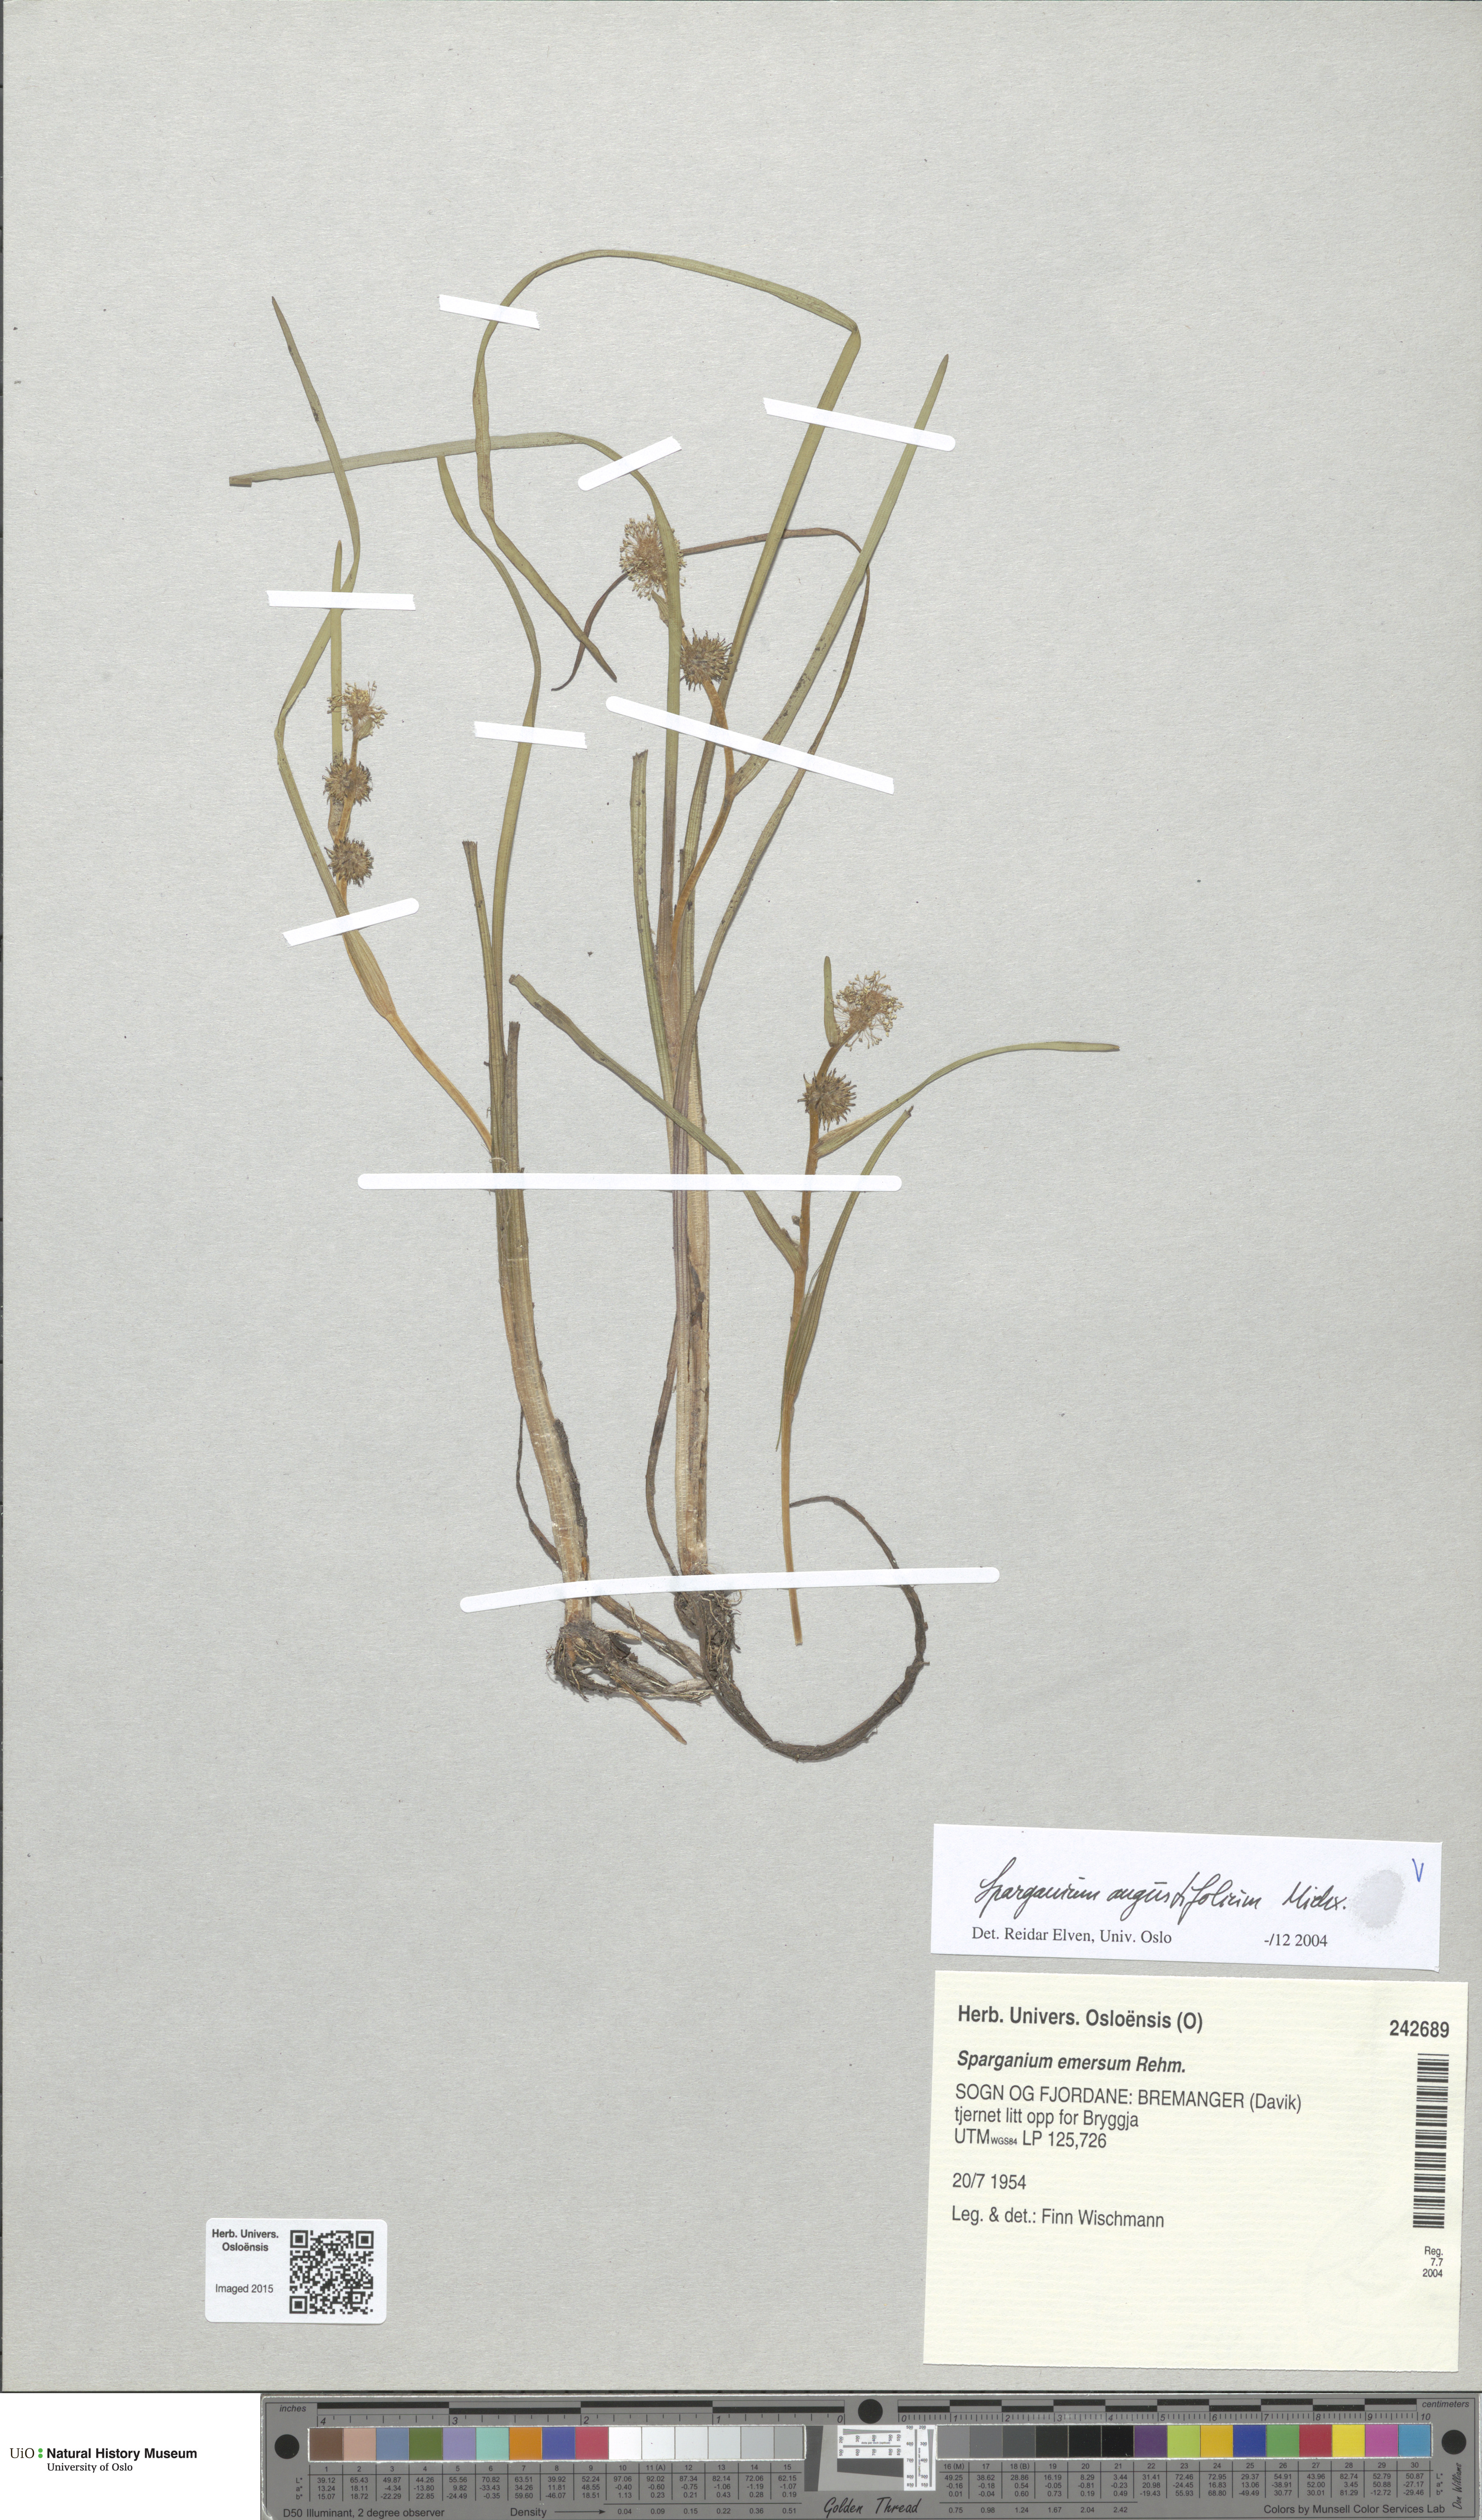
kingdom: Plantae
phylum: Tracheophyta
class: Liliopsida
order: Poales
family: Typhaceae
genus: Sparganium
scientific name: Sparganium angustifolium
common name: Floating bur-reed
